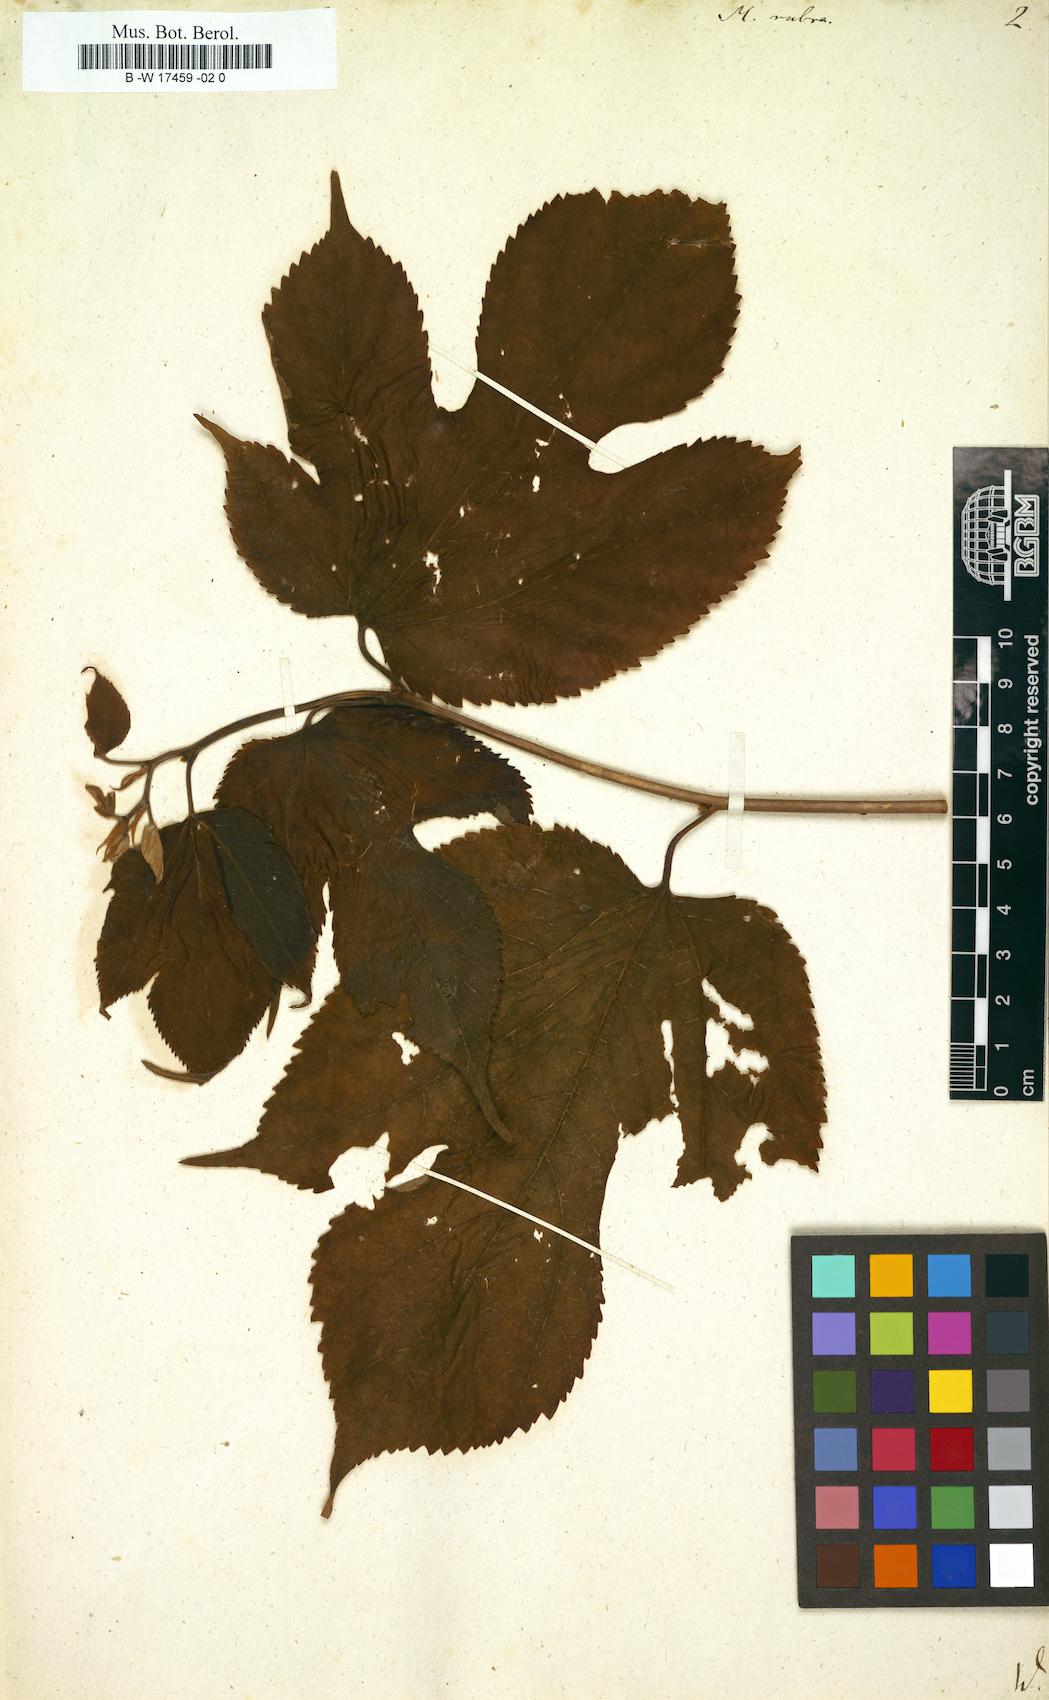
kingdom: Plantae
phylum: Tracheophyta
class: Magnoliopsida
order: Rosales
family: Moraceae
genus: Morus
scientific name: Morus rubra
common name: Red mulberry
